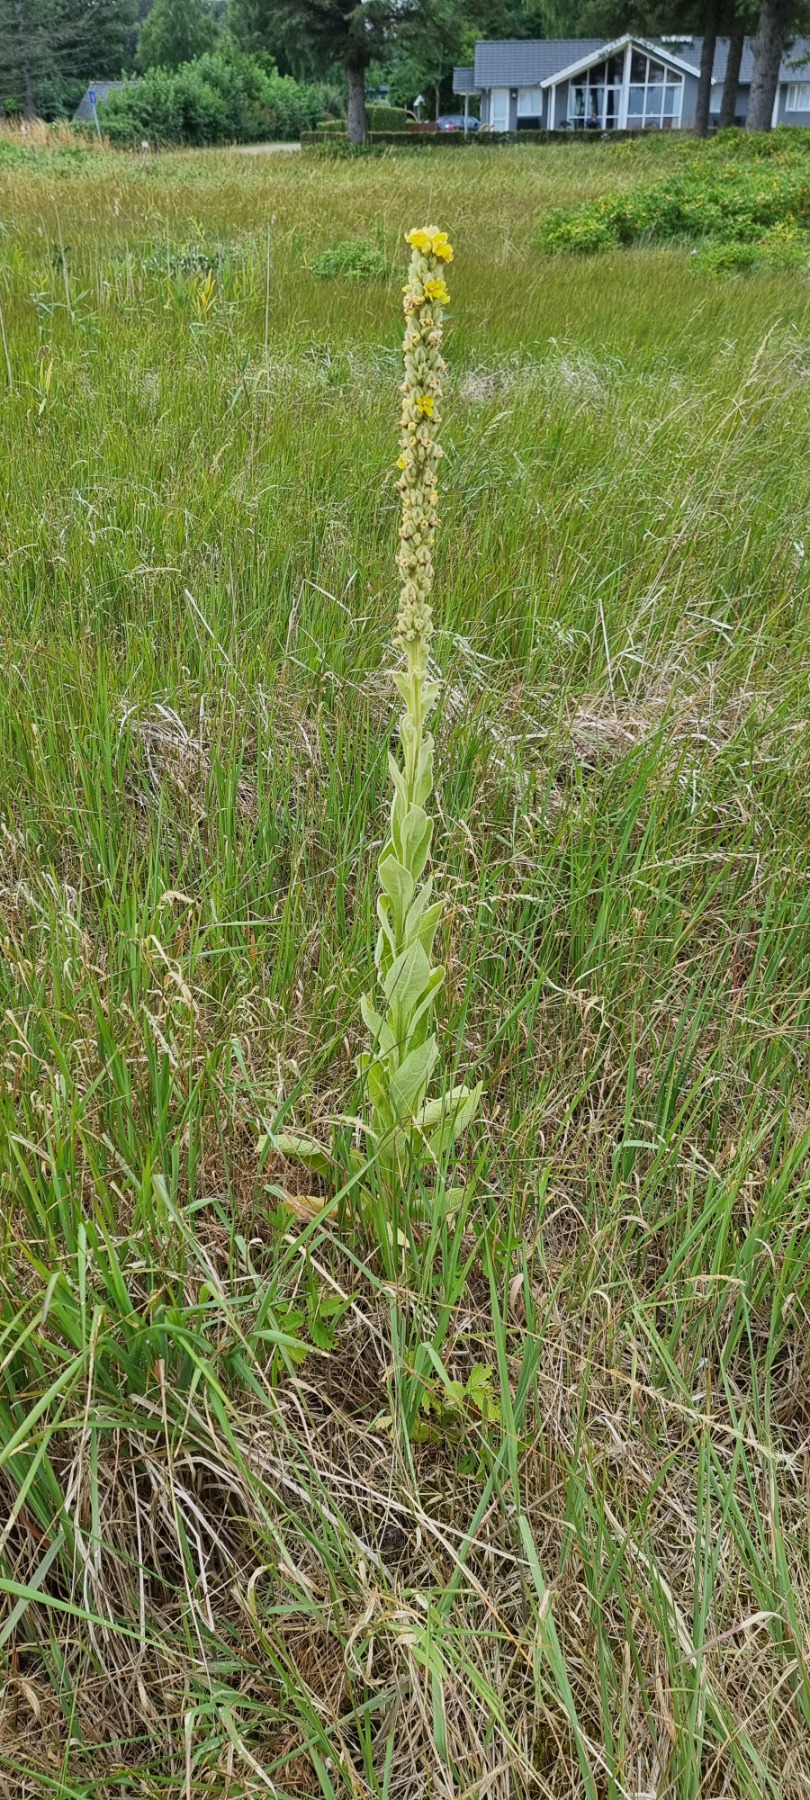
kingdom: Plantae
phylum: Tracheophyta
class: Magnoliopsida
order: Lamiales
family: Scrophulariaceae
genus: Verbascum
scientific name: Verbascum thapsus
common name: Filtbladet kongelys
